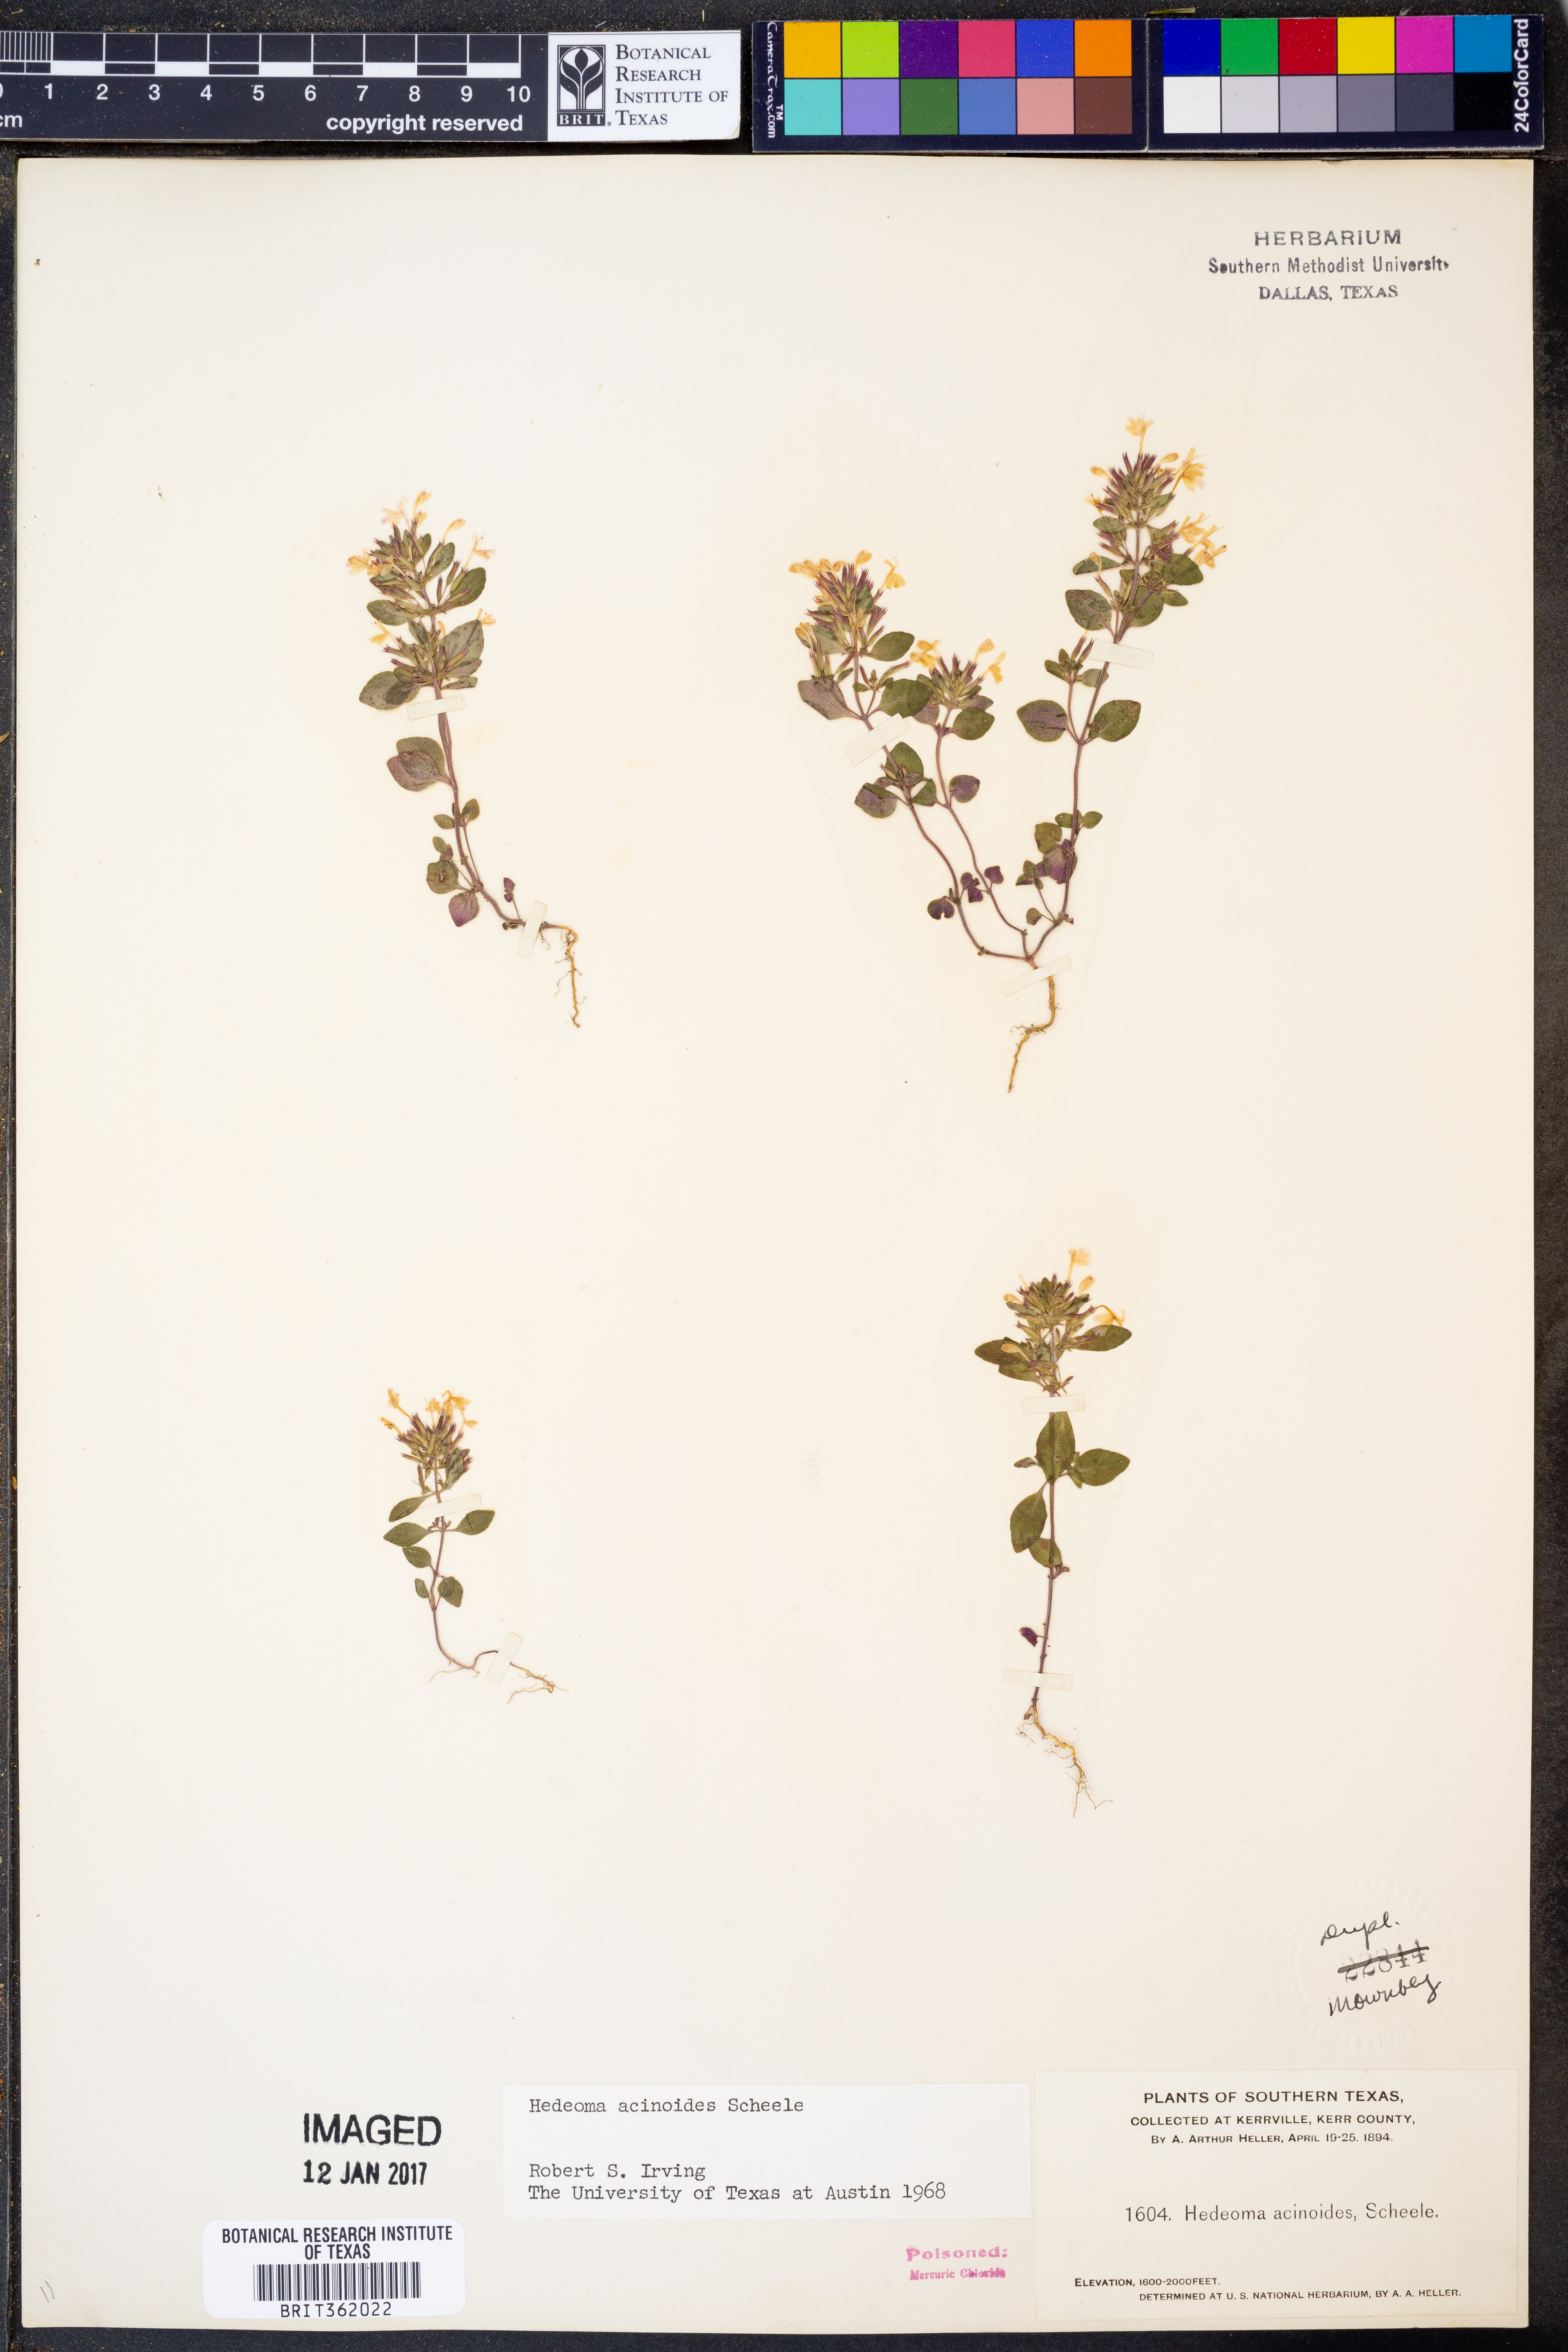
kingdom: Plantae
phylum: Tracheophyta
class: Magnoliopsida
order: Lamiales
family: Lamiaceae
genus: Hedeoma
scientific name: Hedeoma acinoides
